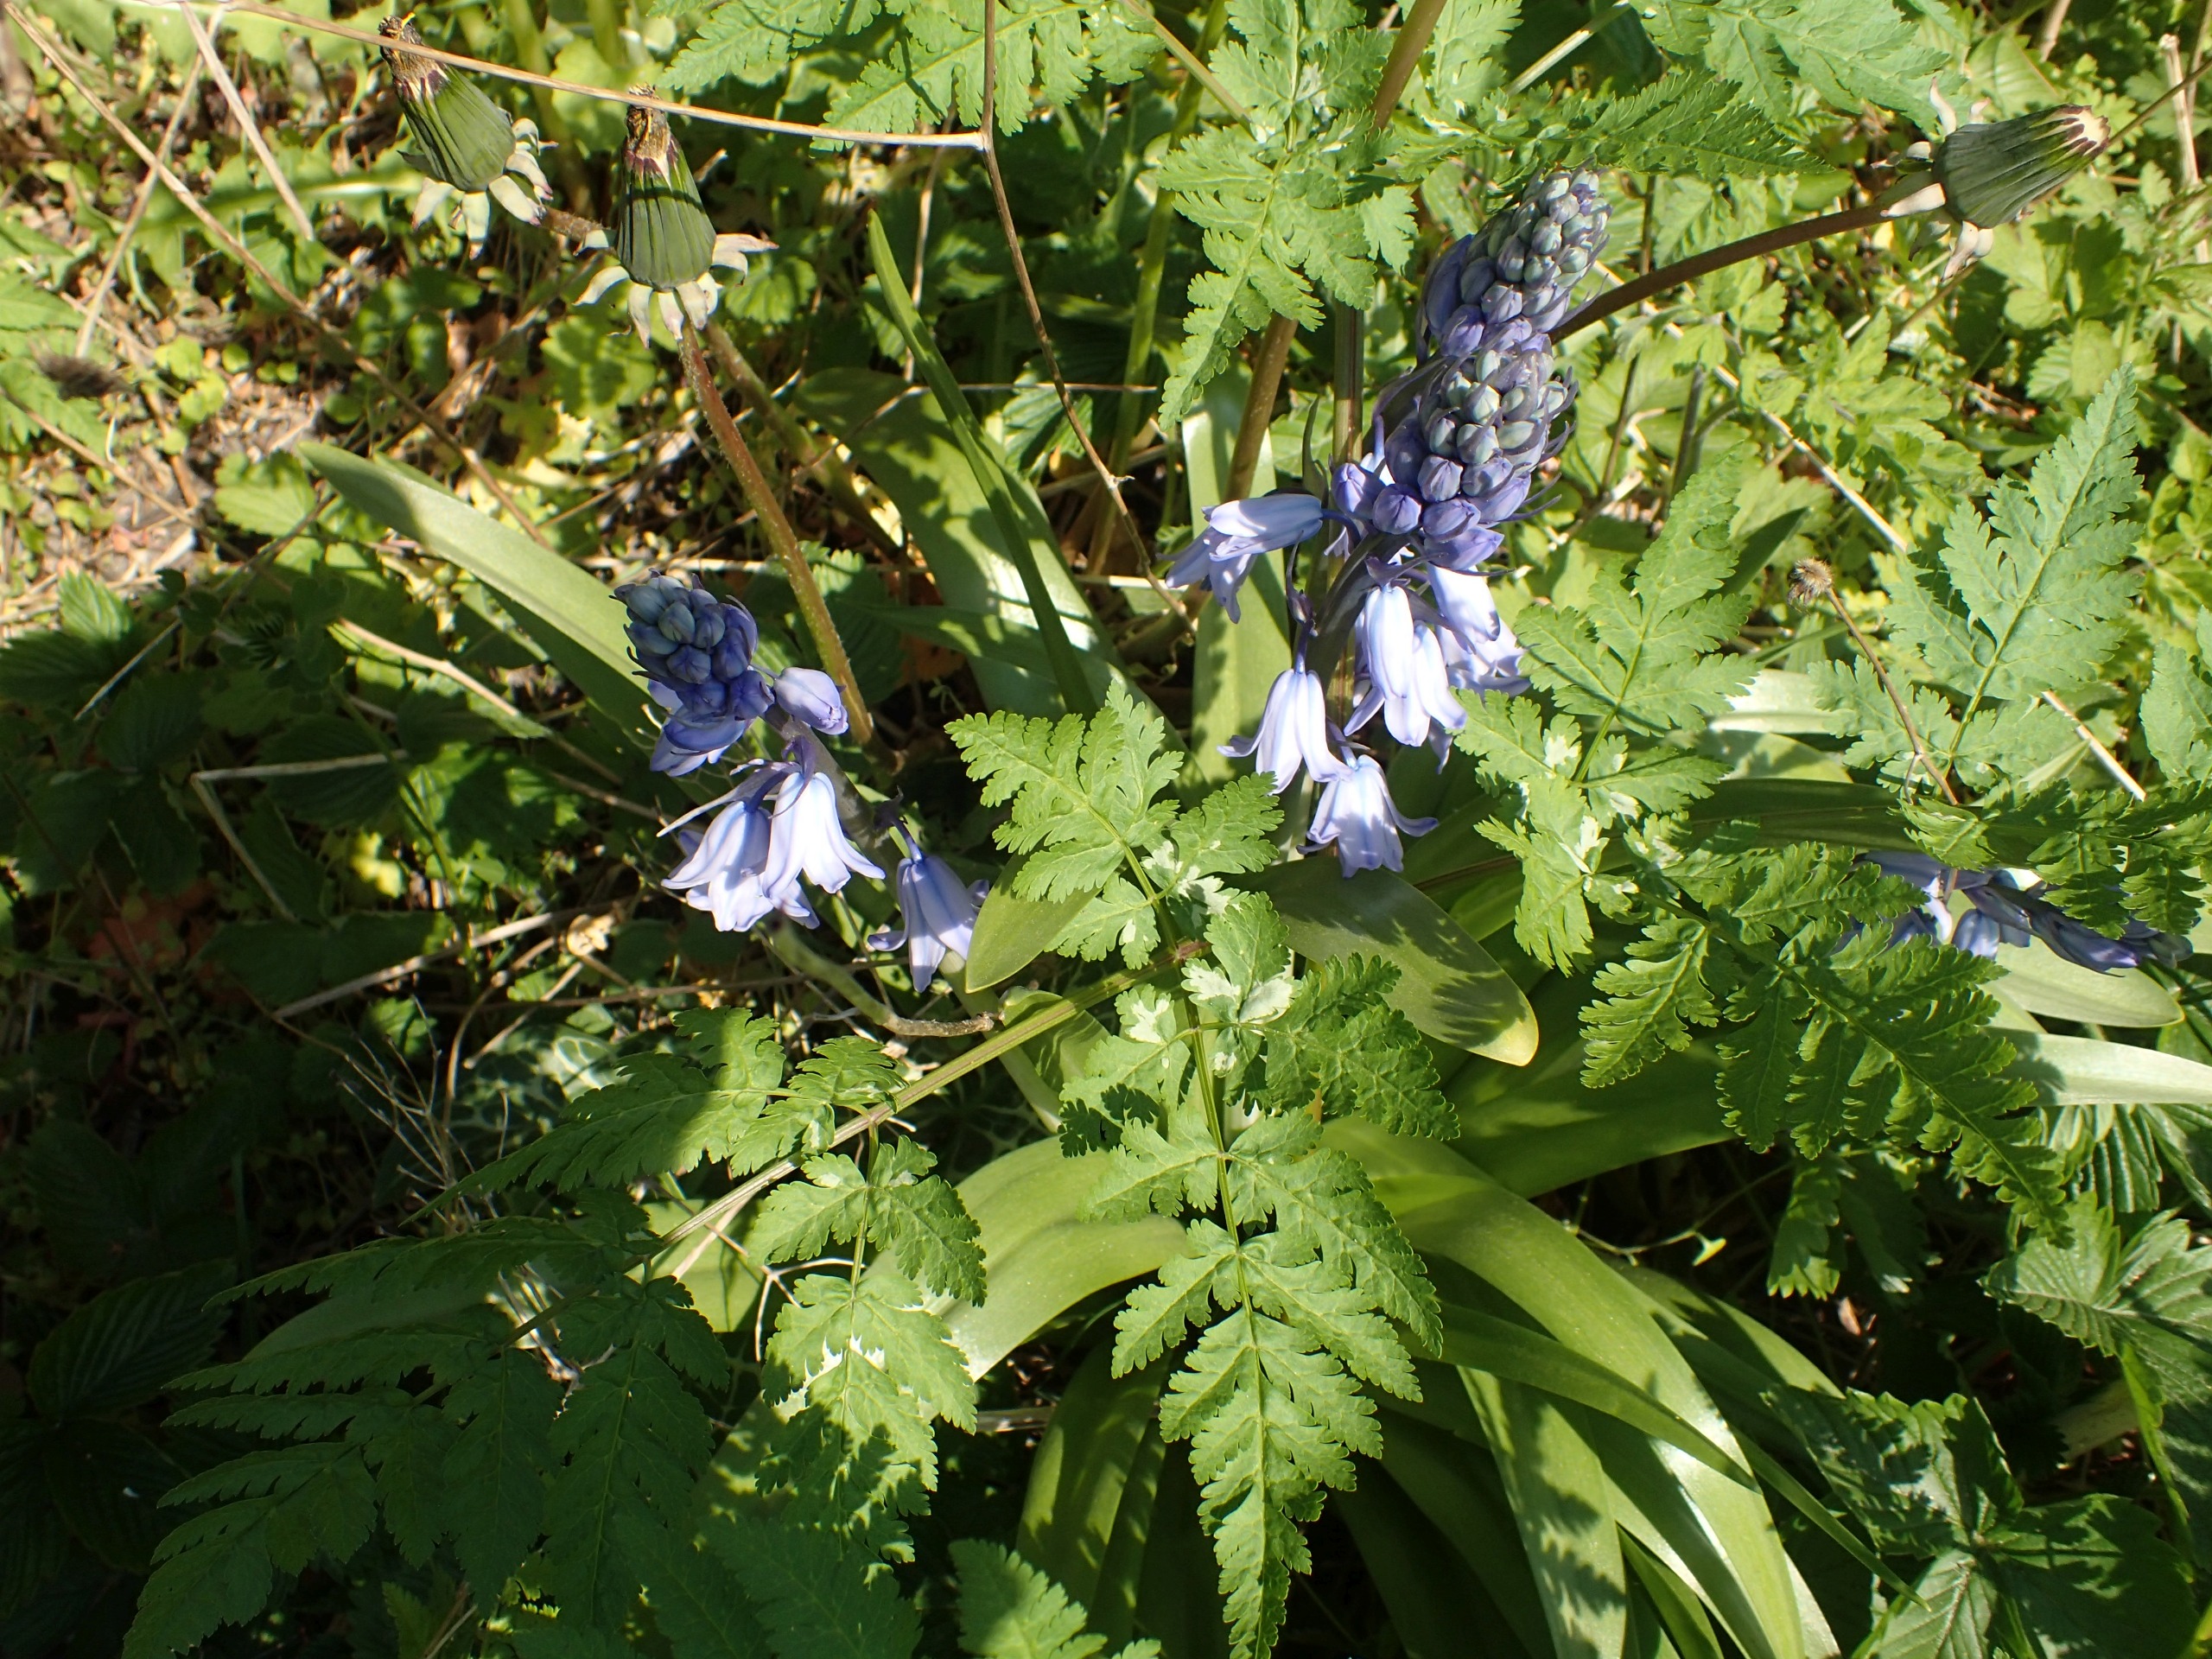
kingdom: Plantae
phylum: Tracheophyta
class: Liliopsida
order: Asparagales
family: Asparagaceae
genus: Hyacinthoides
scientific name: Hyacinthoides hispanica
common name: Spansk skilla
